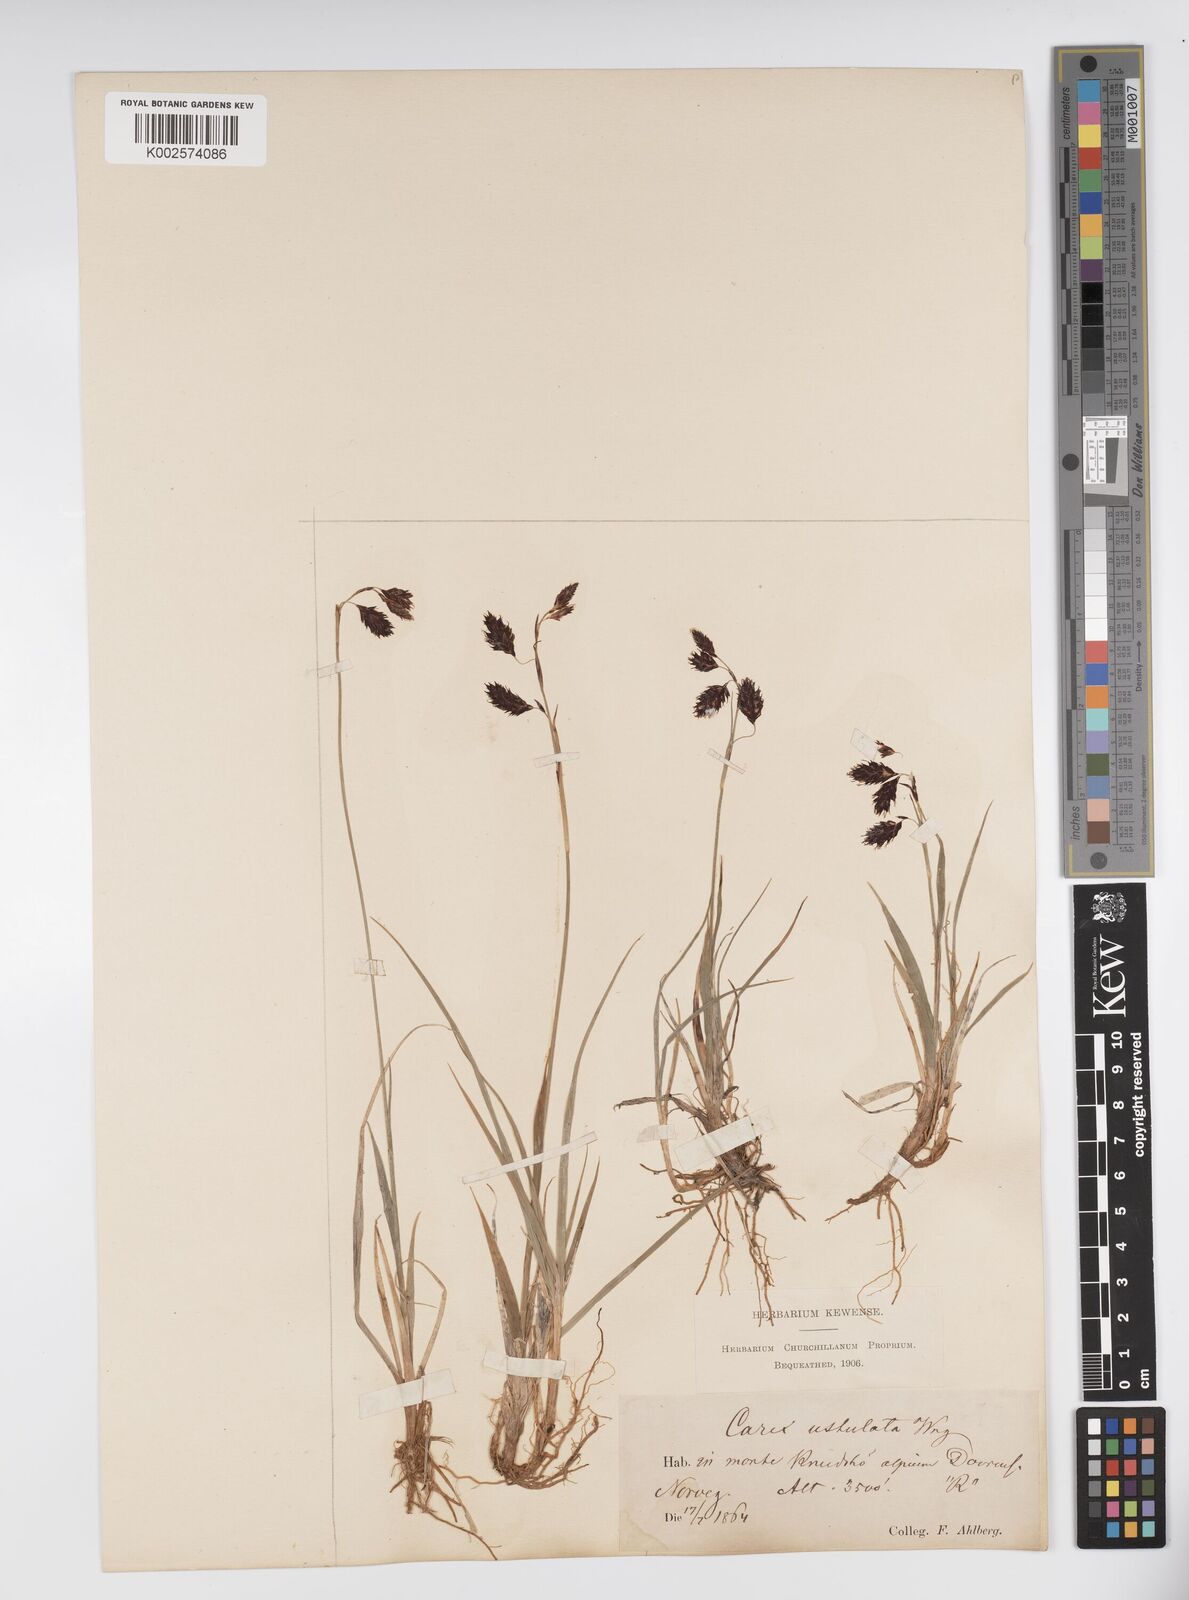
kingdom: Plantae
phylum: Tracheophyta
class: Liliopsida
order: Poales
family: Cyperaceae
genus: Carex
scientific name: Carex atrofusca
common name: Scorched alpine-sedge
